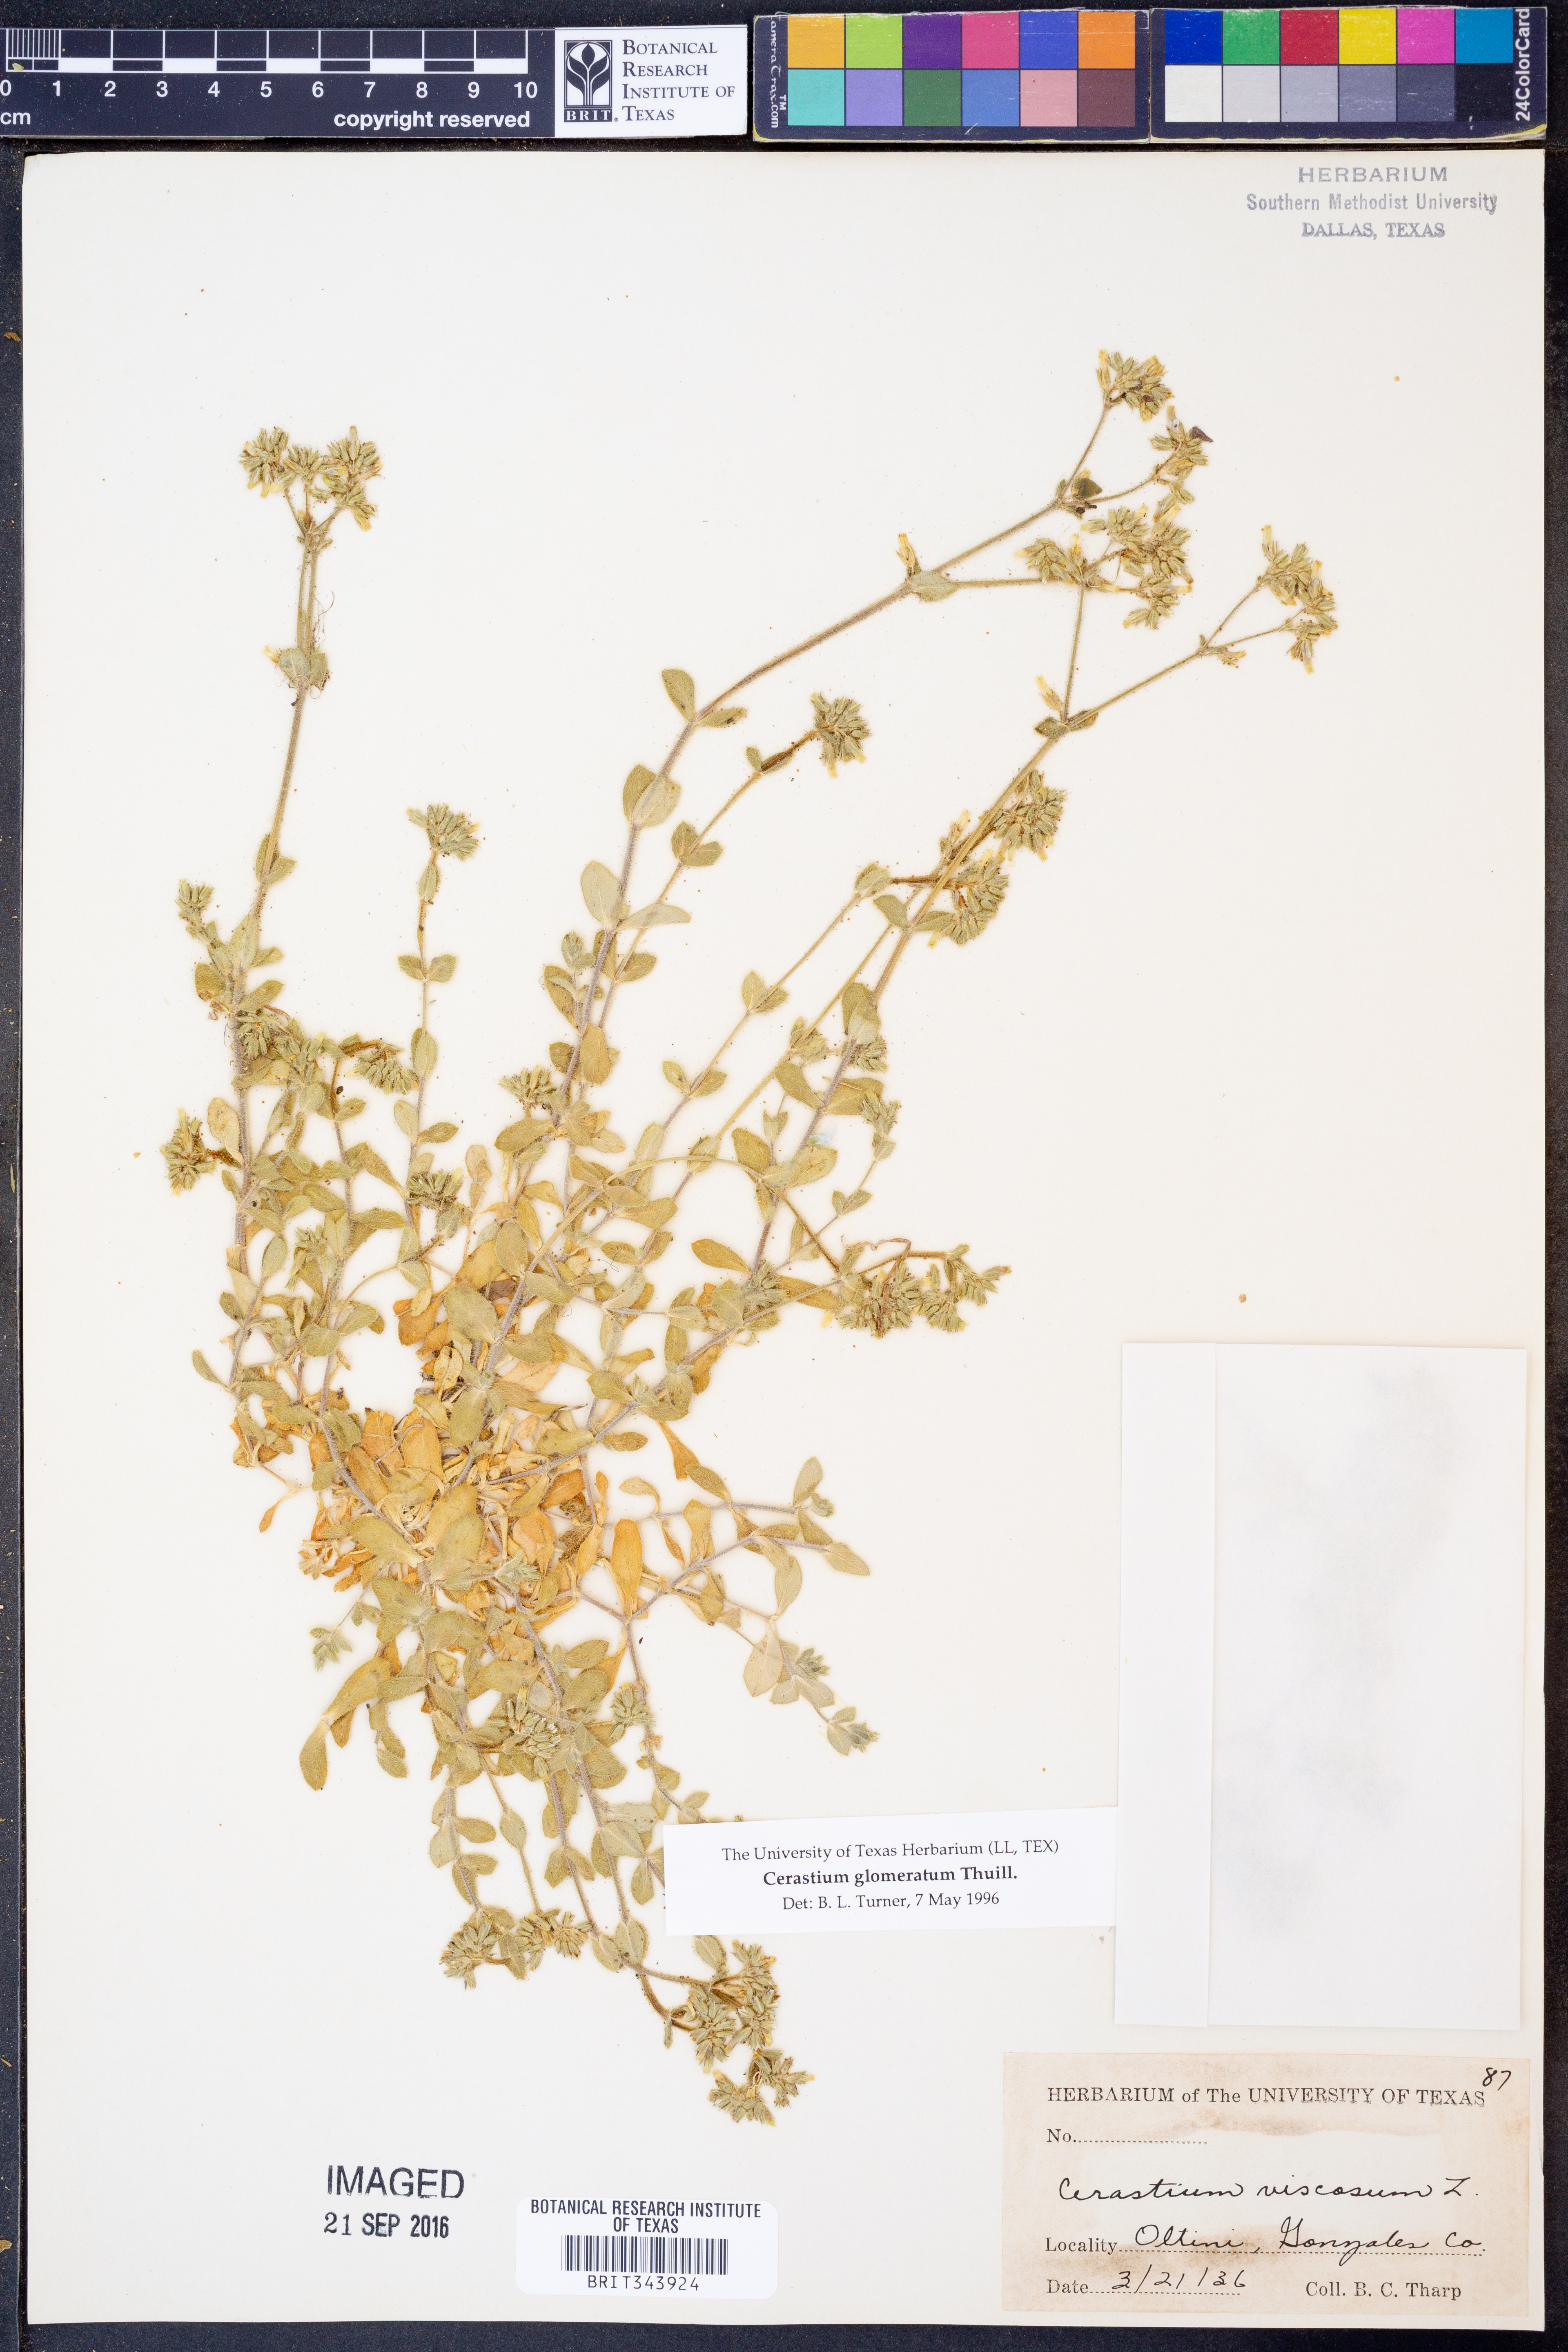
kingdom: Plantae
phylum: Tracheophyta
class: Magnoliopsida
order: Caryophyllales
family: Caryophyllaceae
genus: Cerastium
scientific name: Cerastium glomeratum
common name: Sticky chickweed
